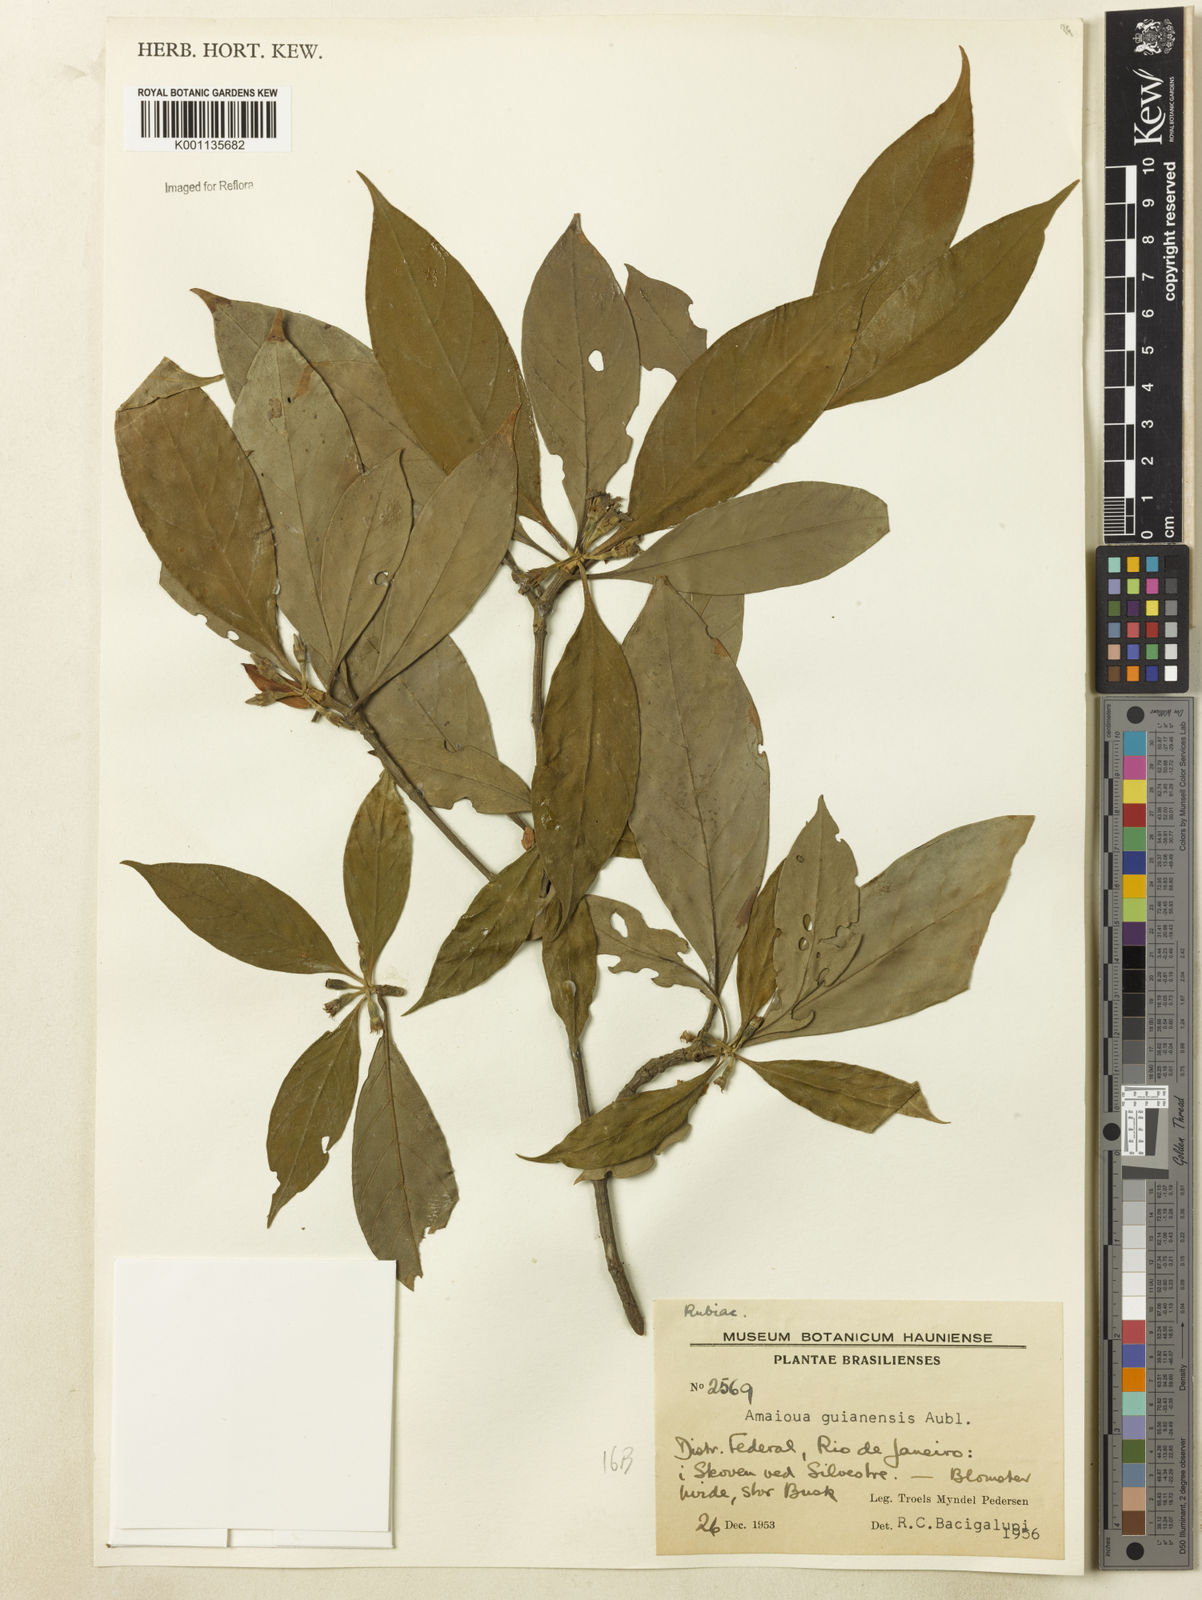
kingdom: Plantae
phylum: Tracheophyta
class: Magnoliopsida
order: Gentianales
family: Rubiaceae
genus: Amaioua
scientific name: Amaioua guianensis
